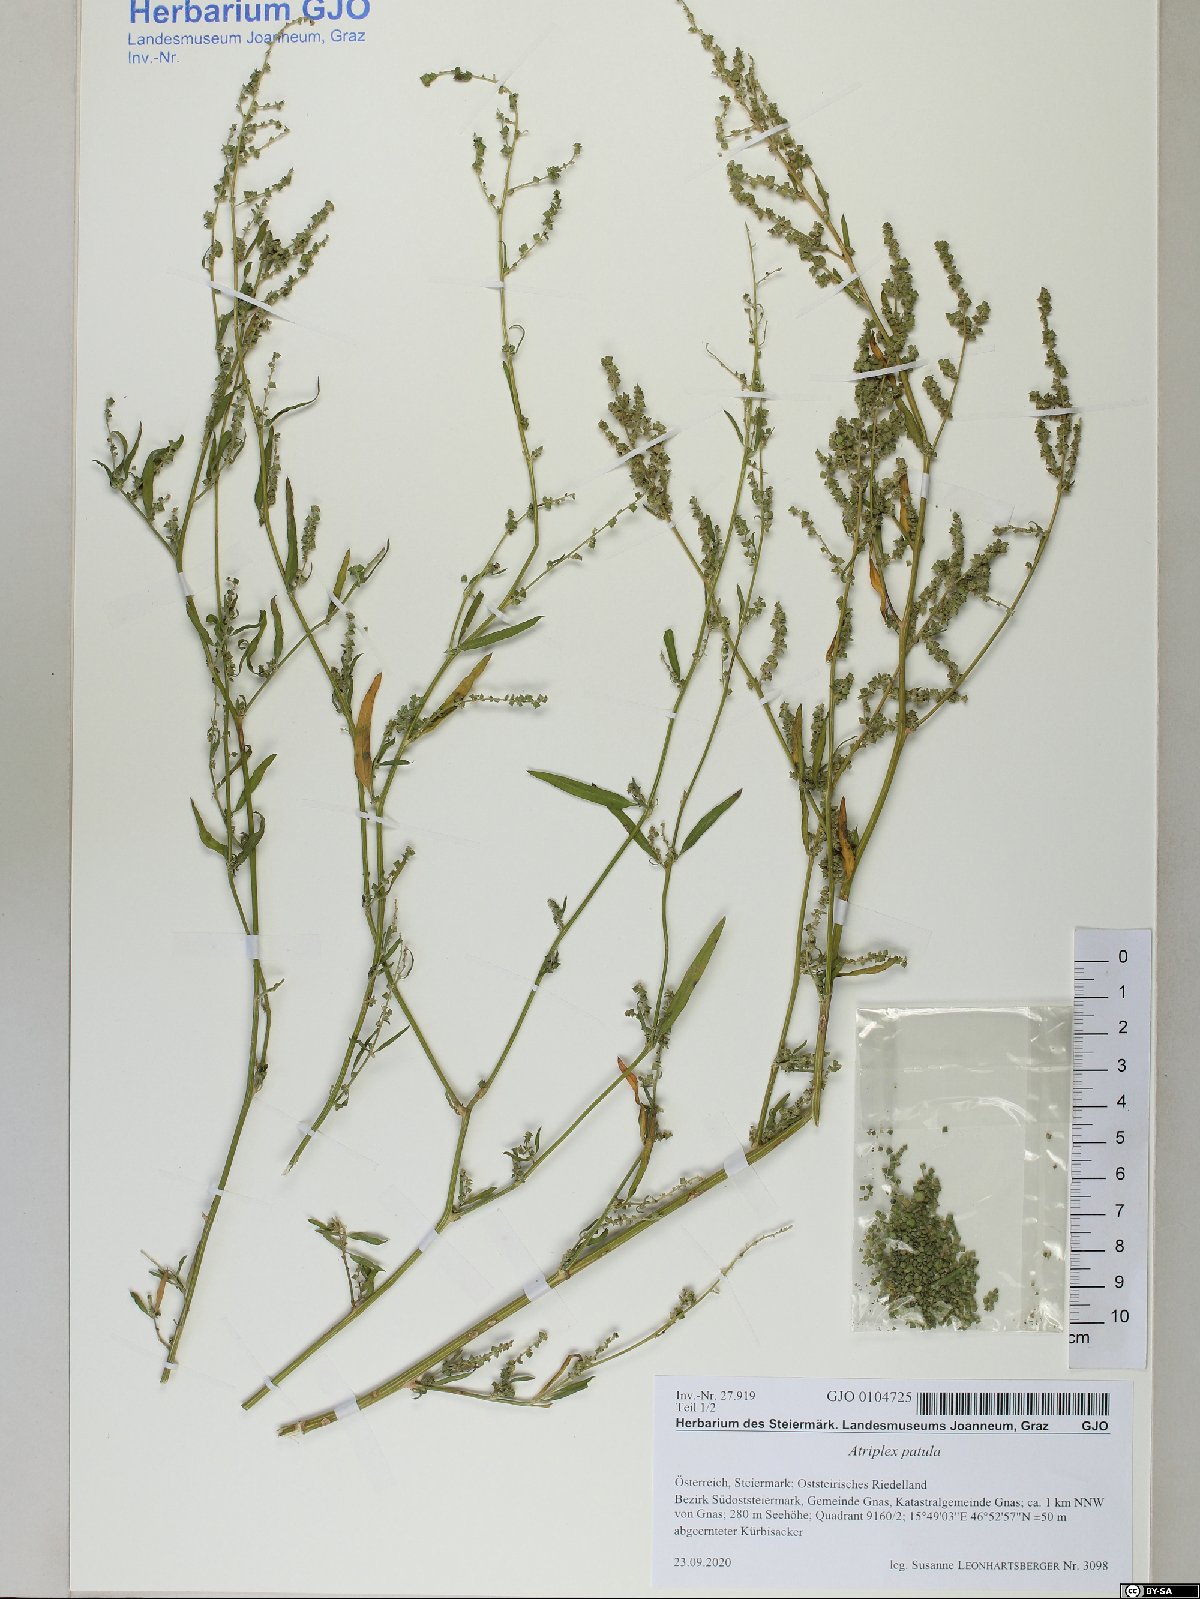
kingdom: Plantae
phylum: Tracheophyta
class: Magnoliopsida
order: Caryophyllales
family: Amaranthaceae
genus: Atriplex
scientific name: Atriplex patula
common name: Common orache
